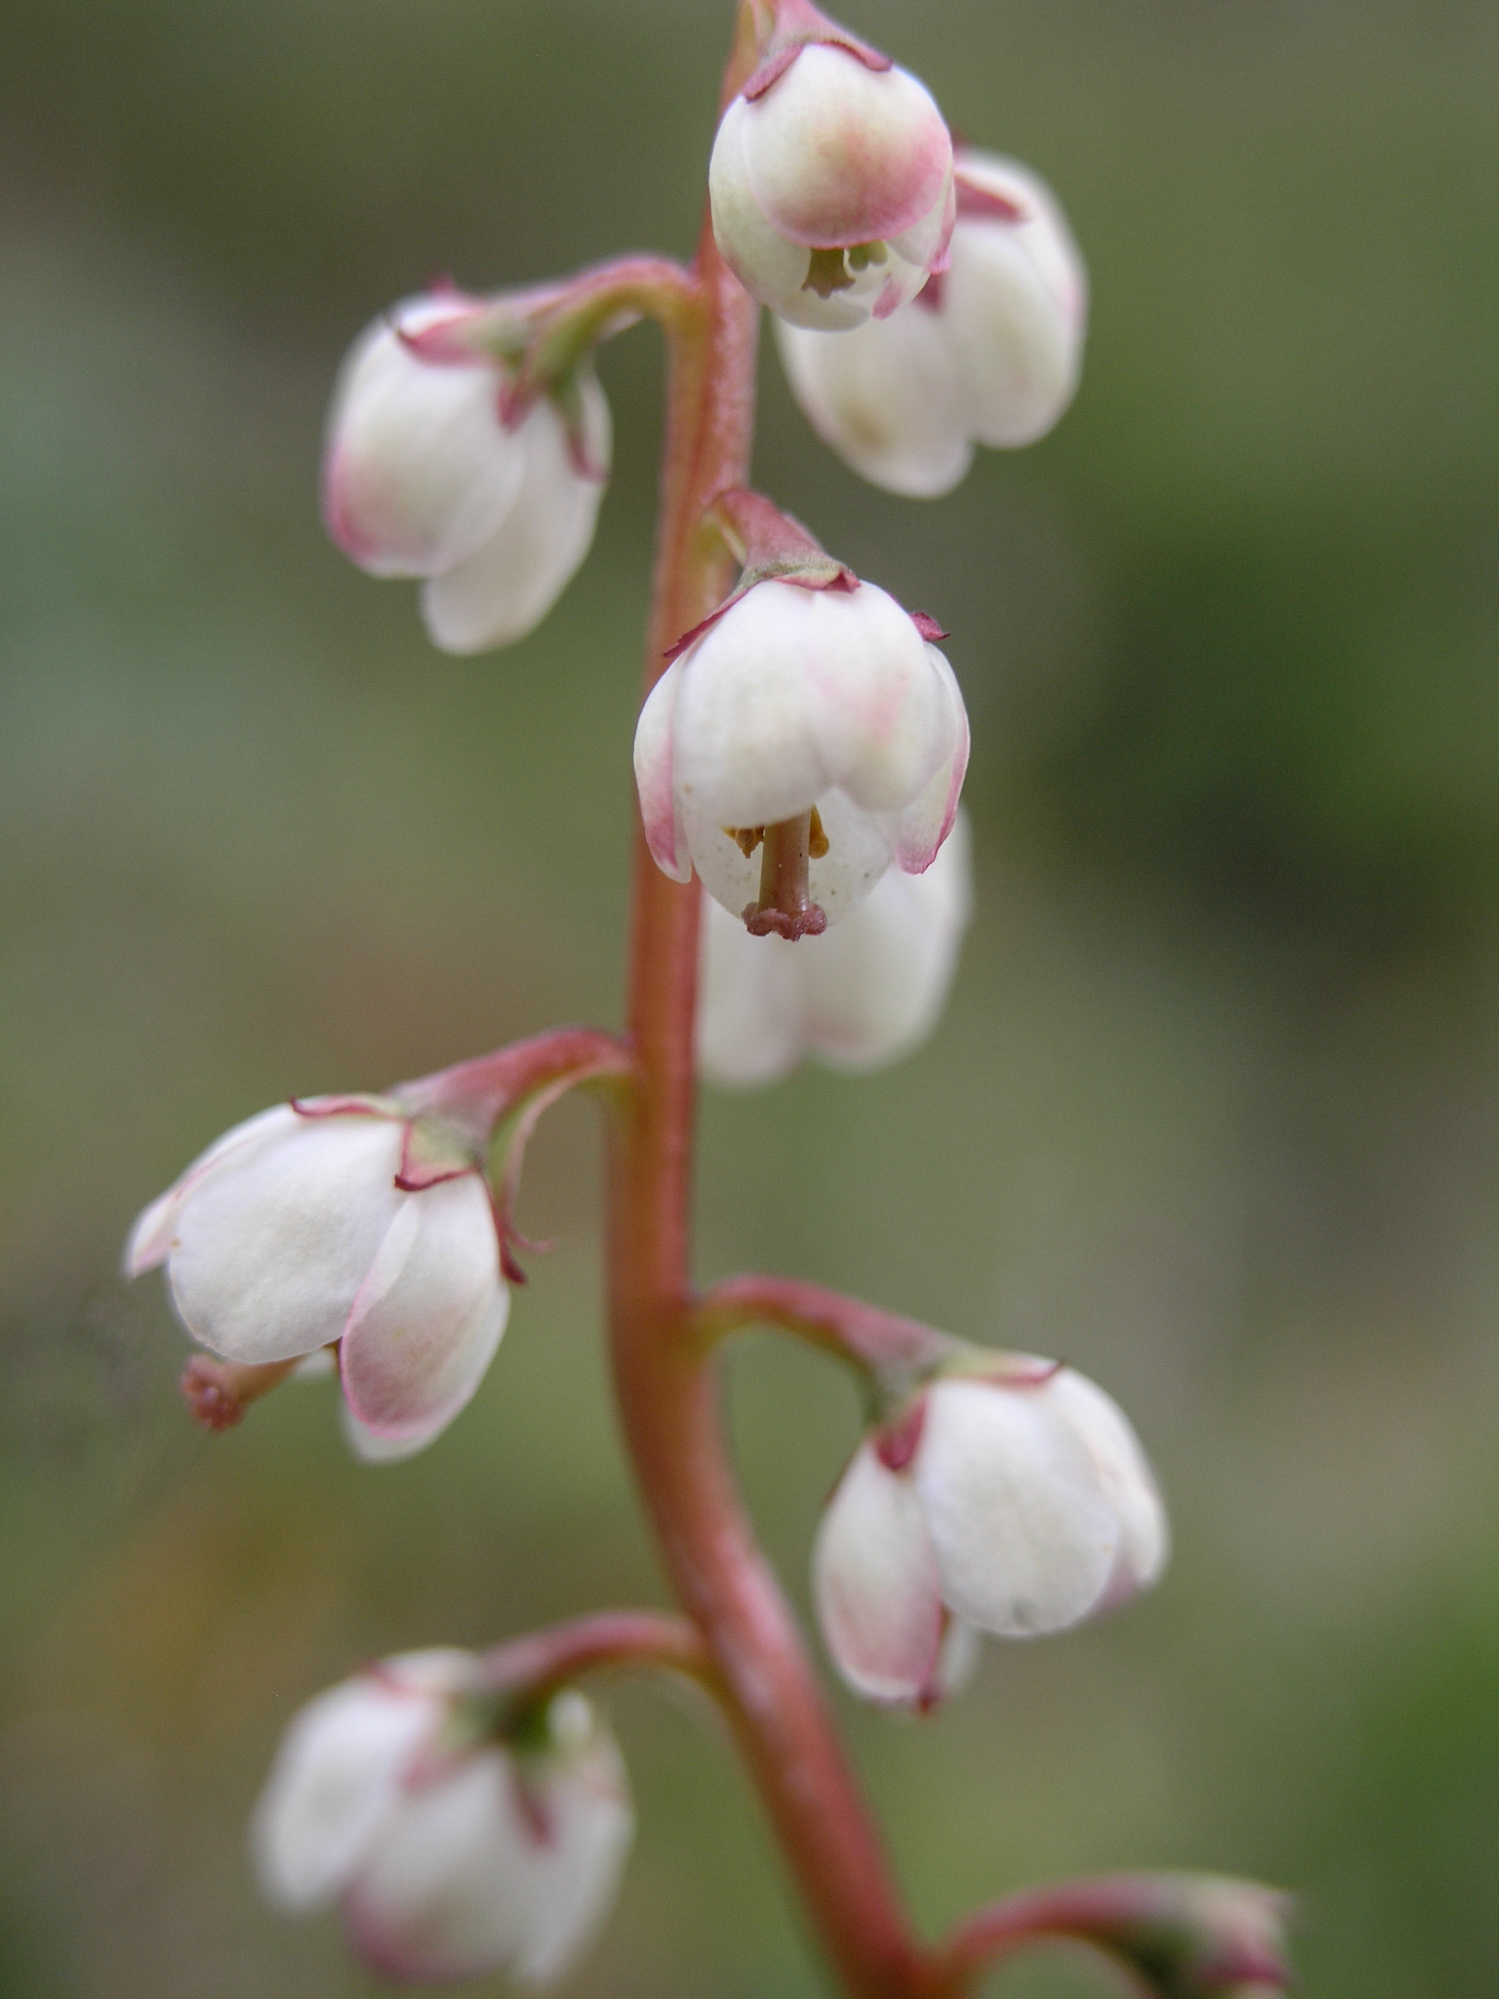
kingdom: Plantae
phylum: Tracheophyta
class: Magnoliopsida
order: Ericales
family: Ericaceae
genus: Pyrola
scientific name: Pyrola media
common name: Intermediate wintergreen
